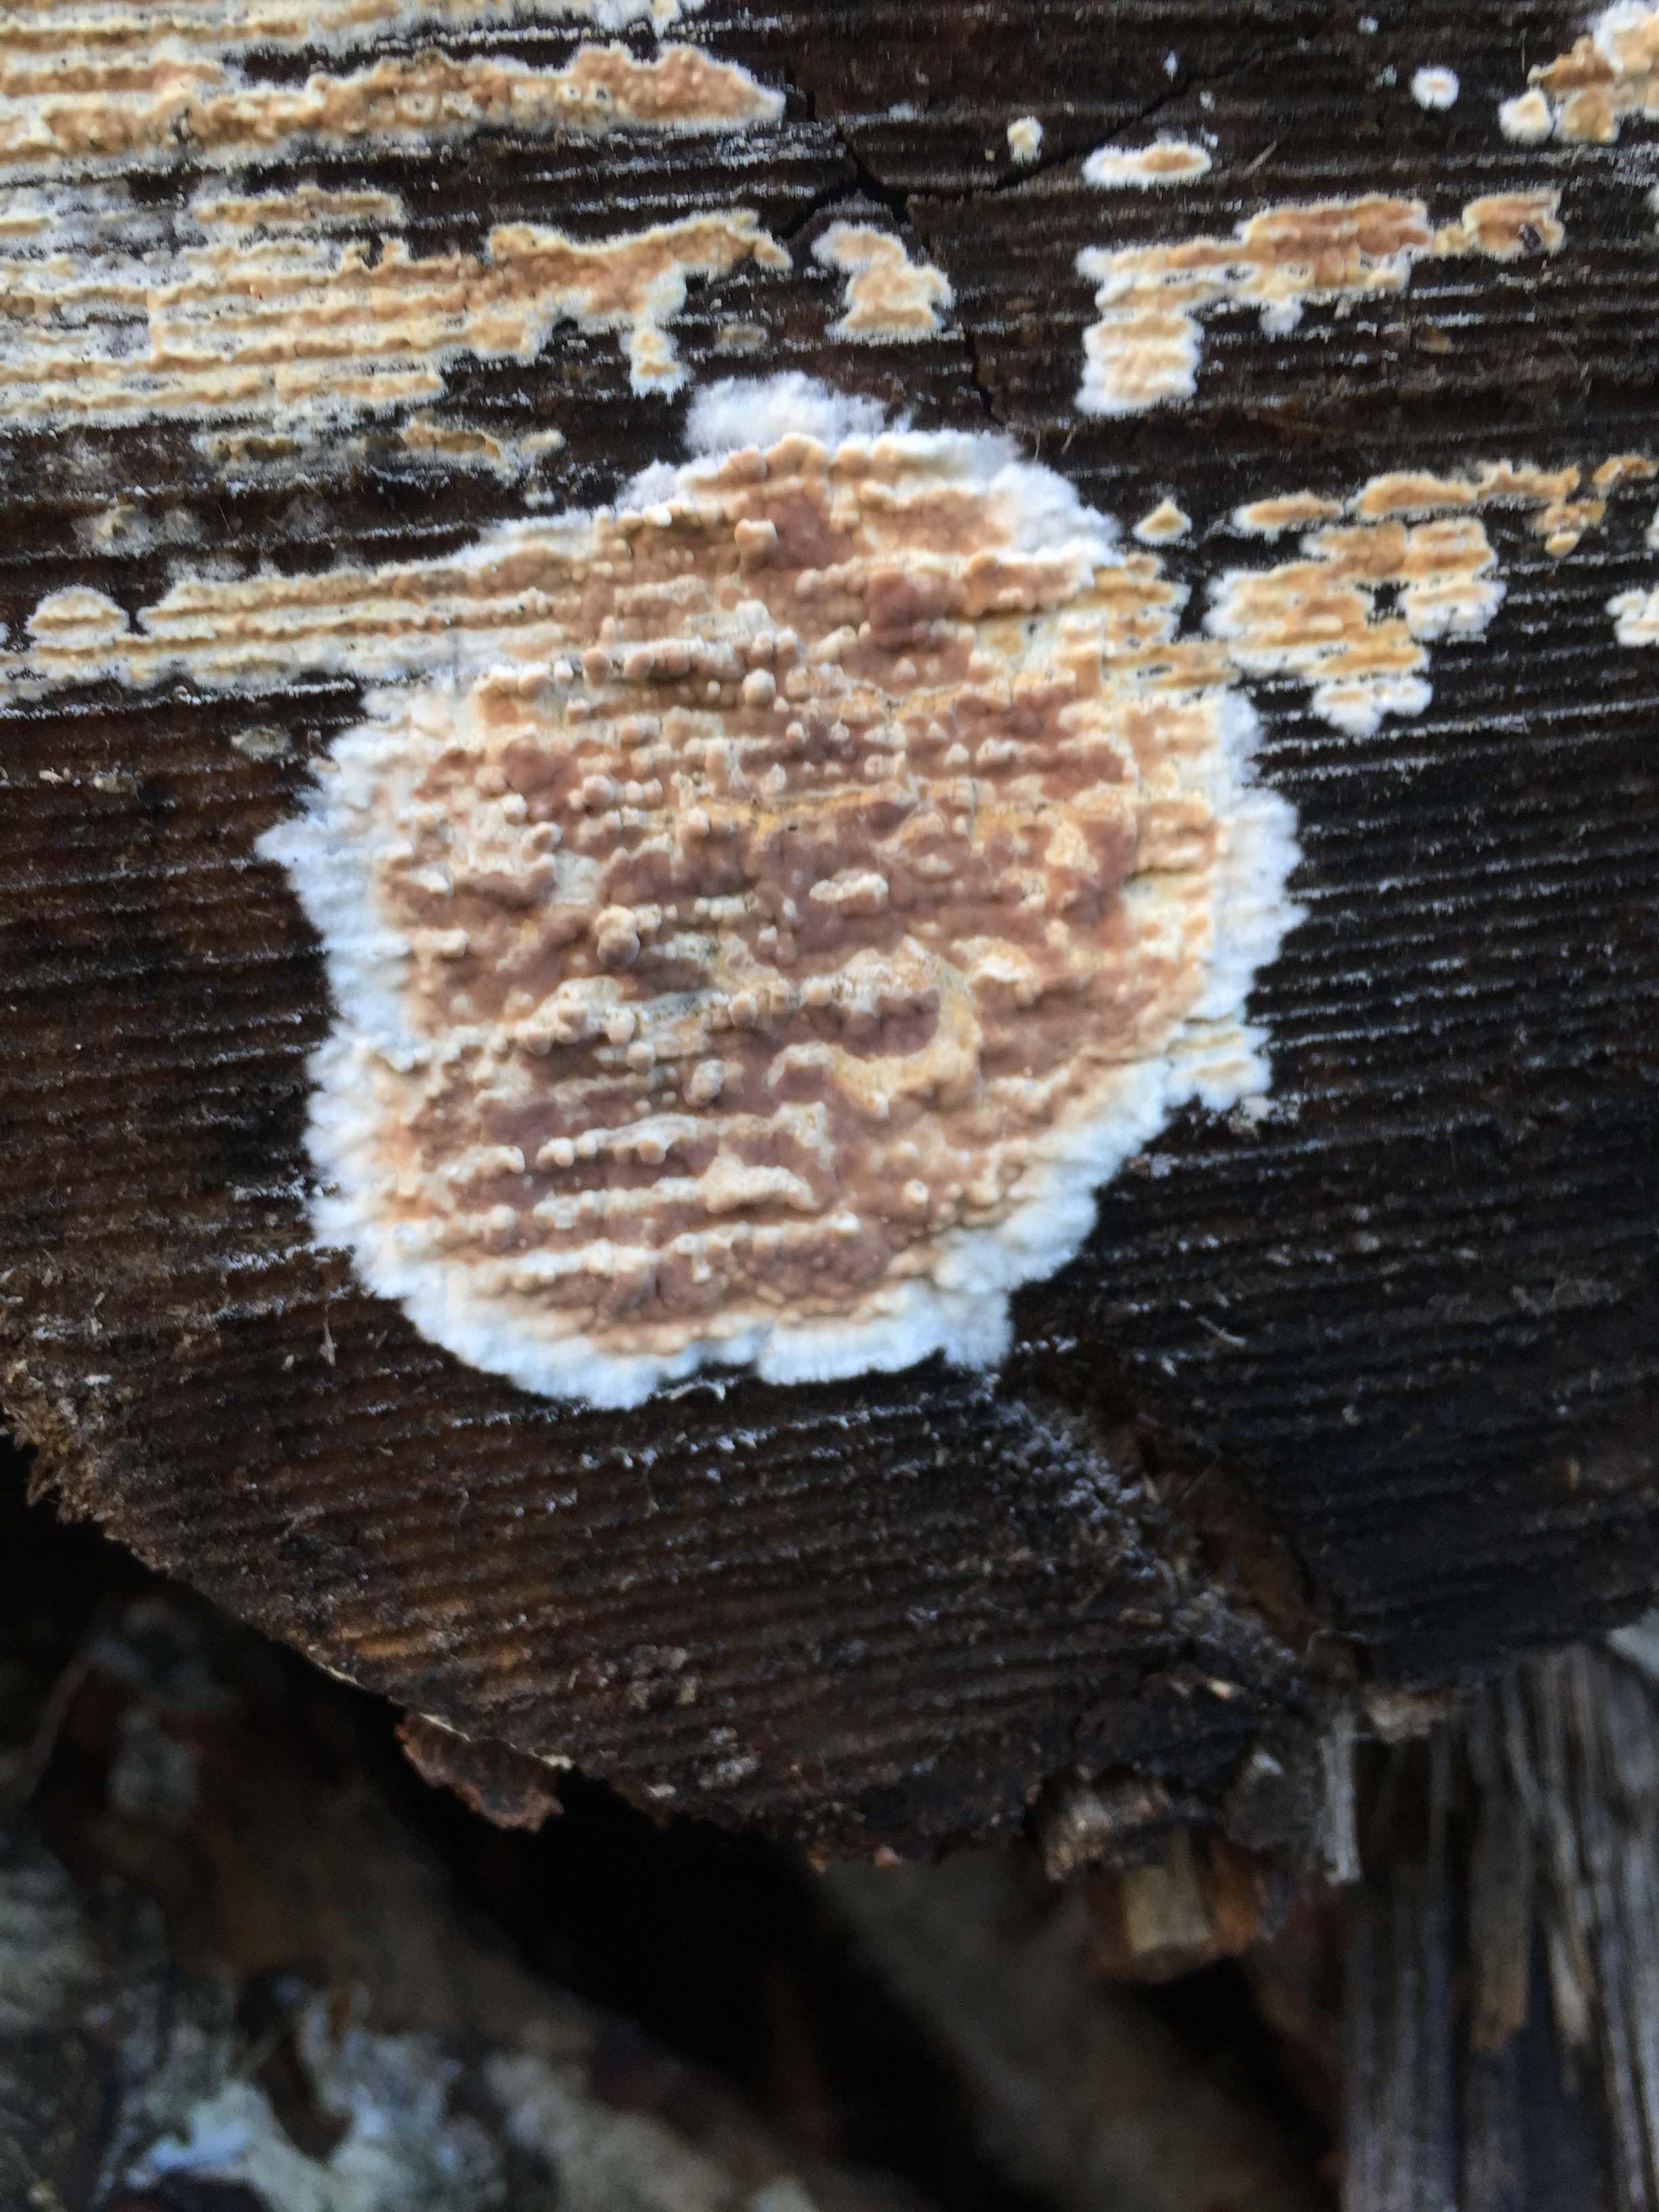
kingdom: Fungi
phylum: Basidiomycota
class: Agaricomycetes
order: Agaricales
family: Physalacriaceae
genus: Cylindrobasidium
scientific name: Cylindrobasidium evolvens
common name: sprækkehinde
